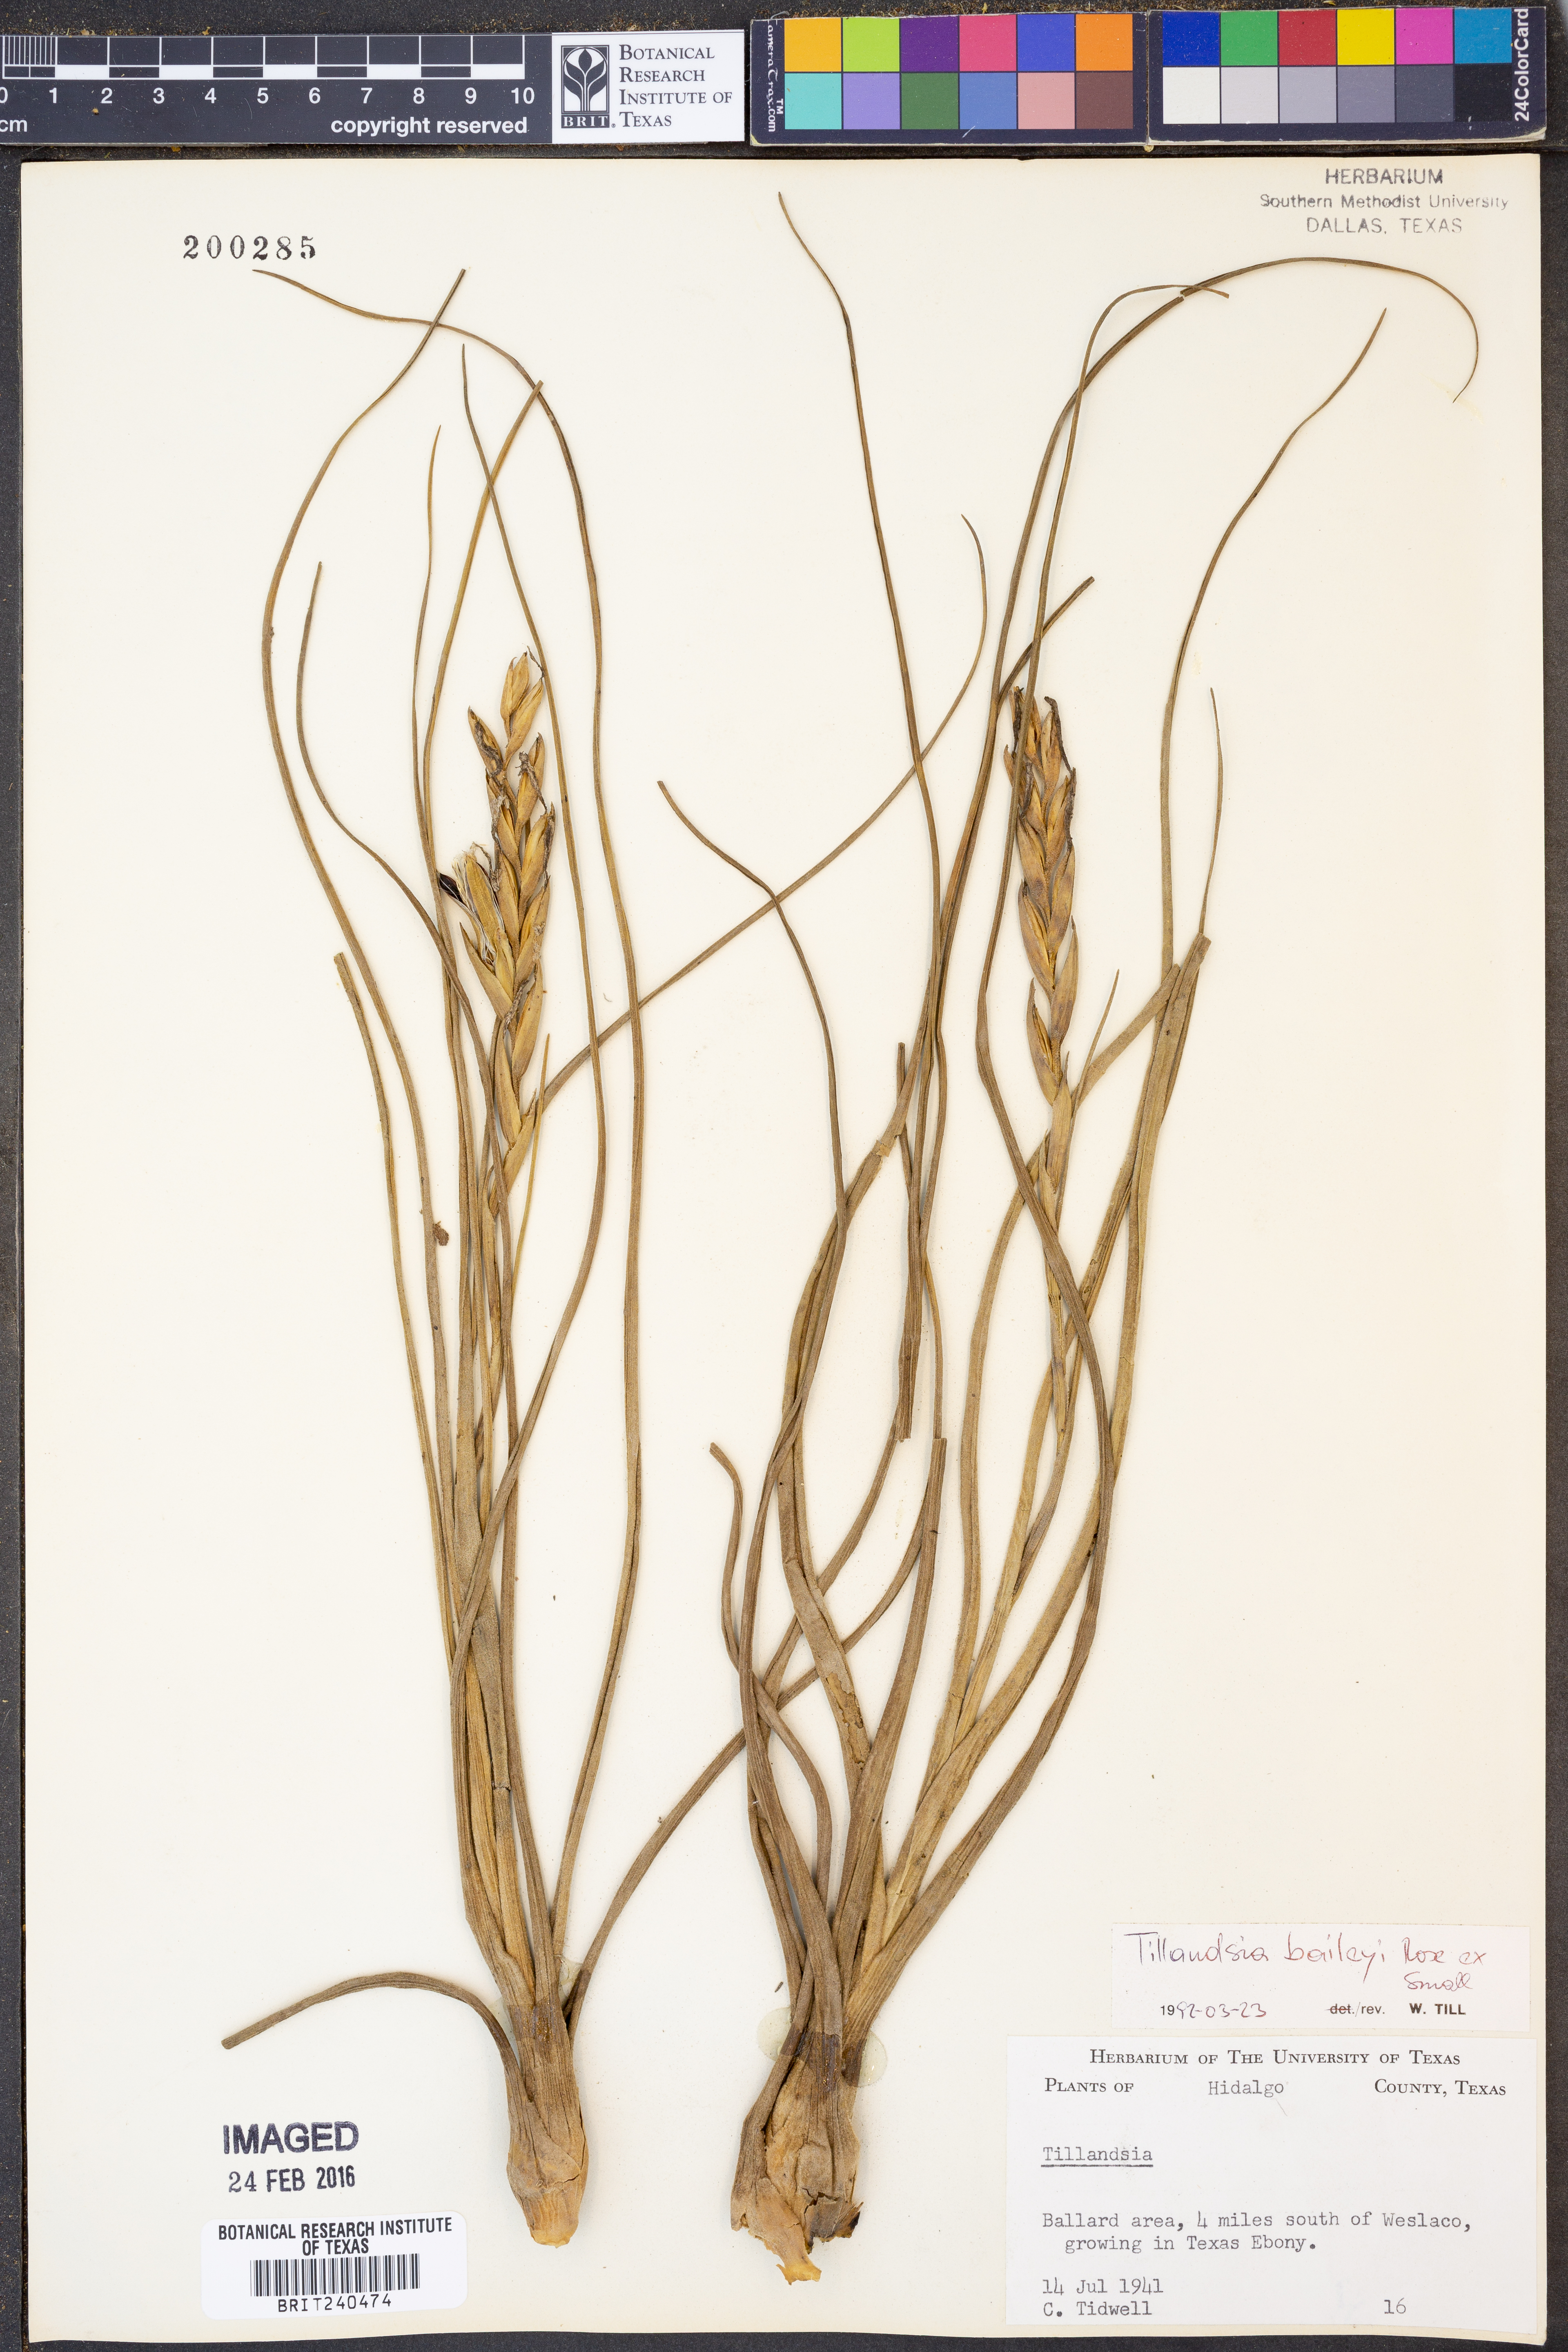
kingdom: Plantae
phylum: Tracheophyta
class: Liliopsida
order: Poales
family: Bromeliaceae
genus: Tillandsia
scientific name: Tillandsia baileyi
